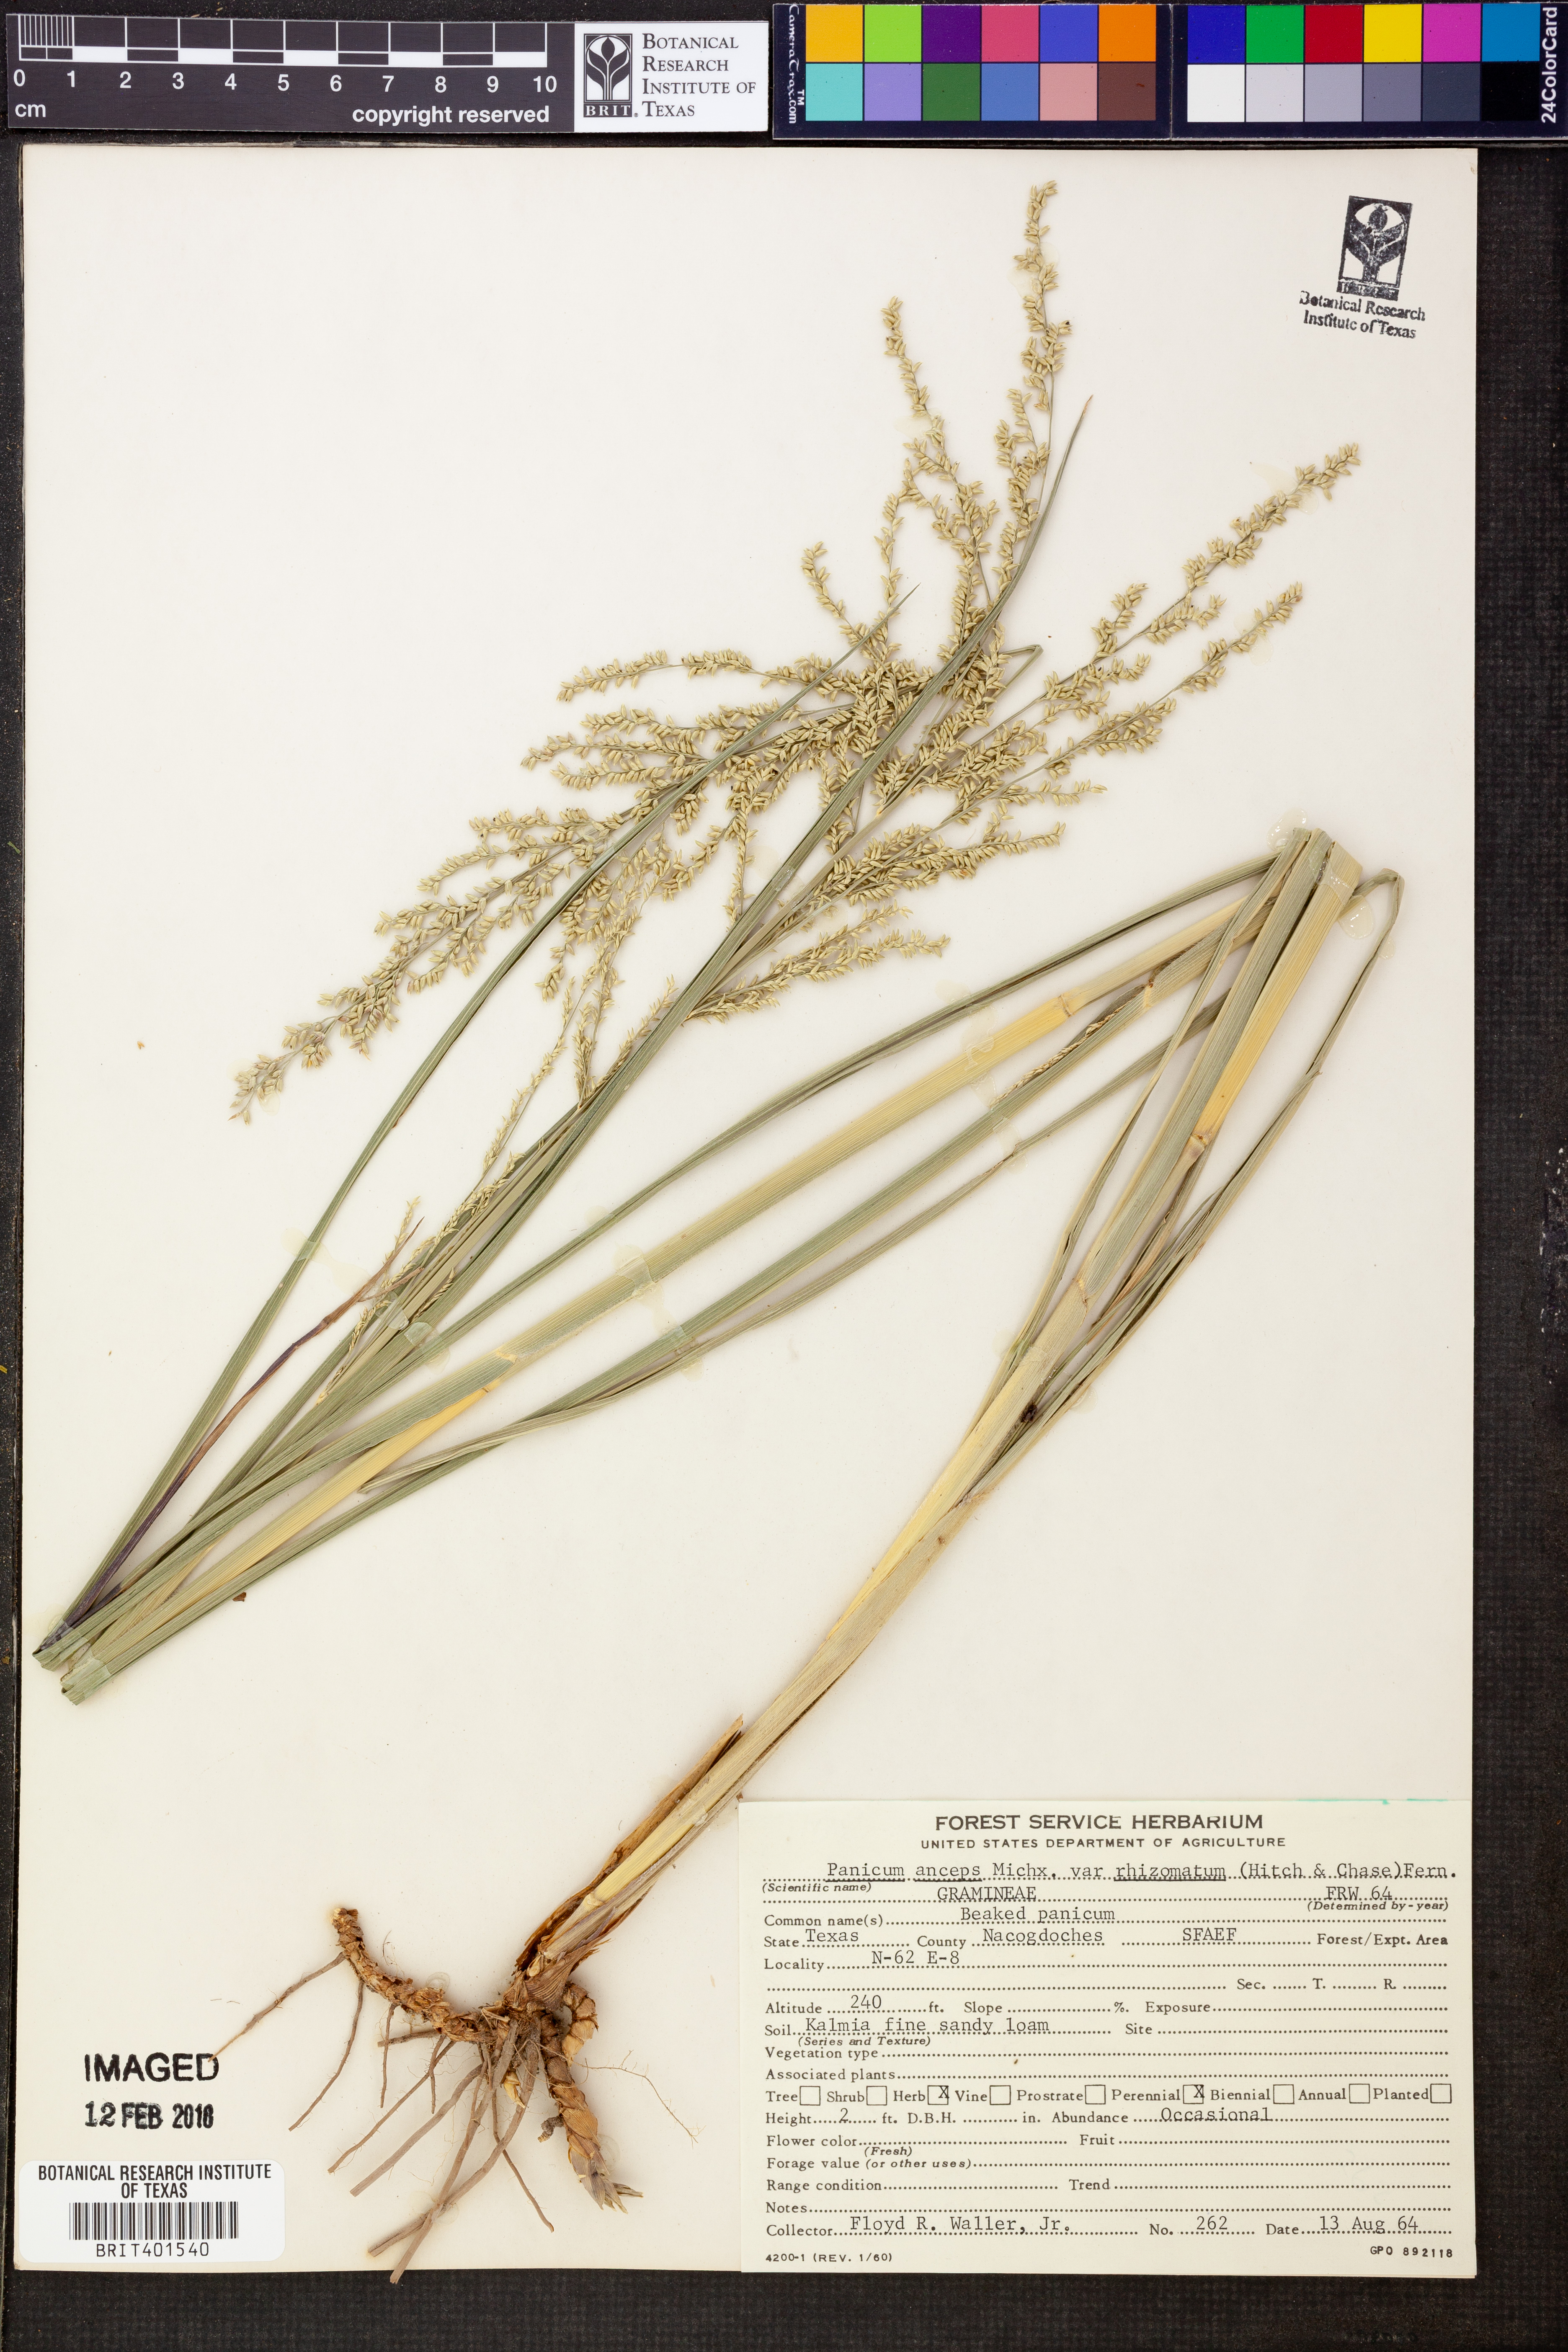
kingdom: Plantae
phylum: Tracheophyta
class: Liliopsida
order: Poales
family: Poaceae
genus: Coleataenia
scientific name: Coleataenia anceps
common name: Beaked panic grass
